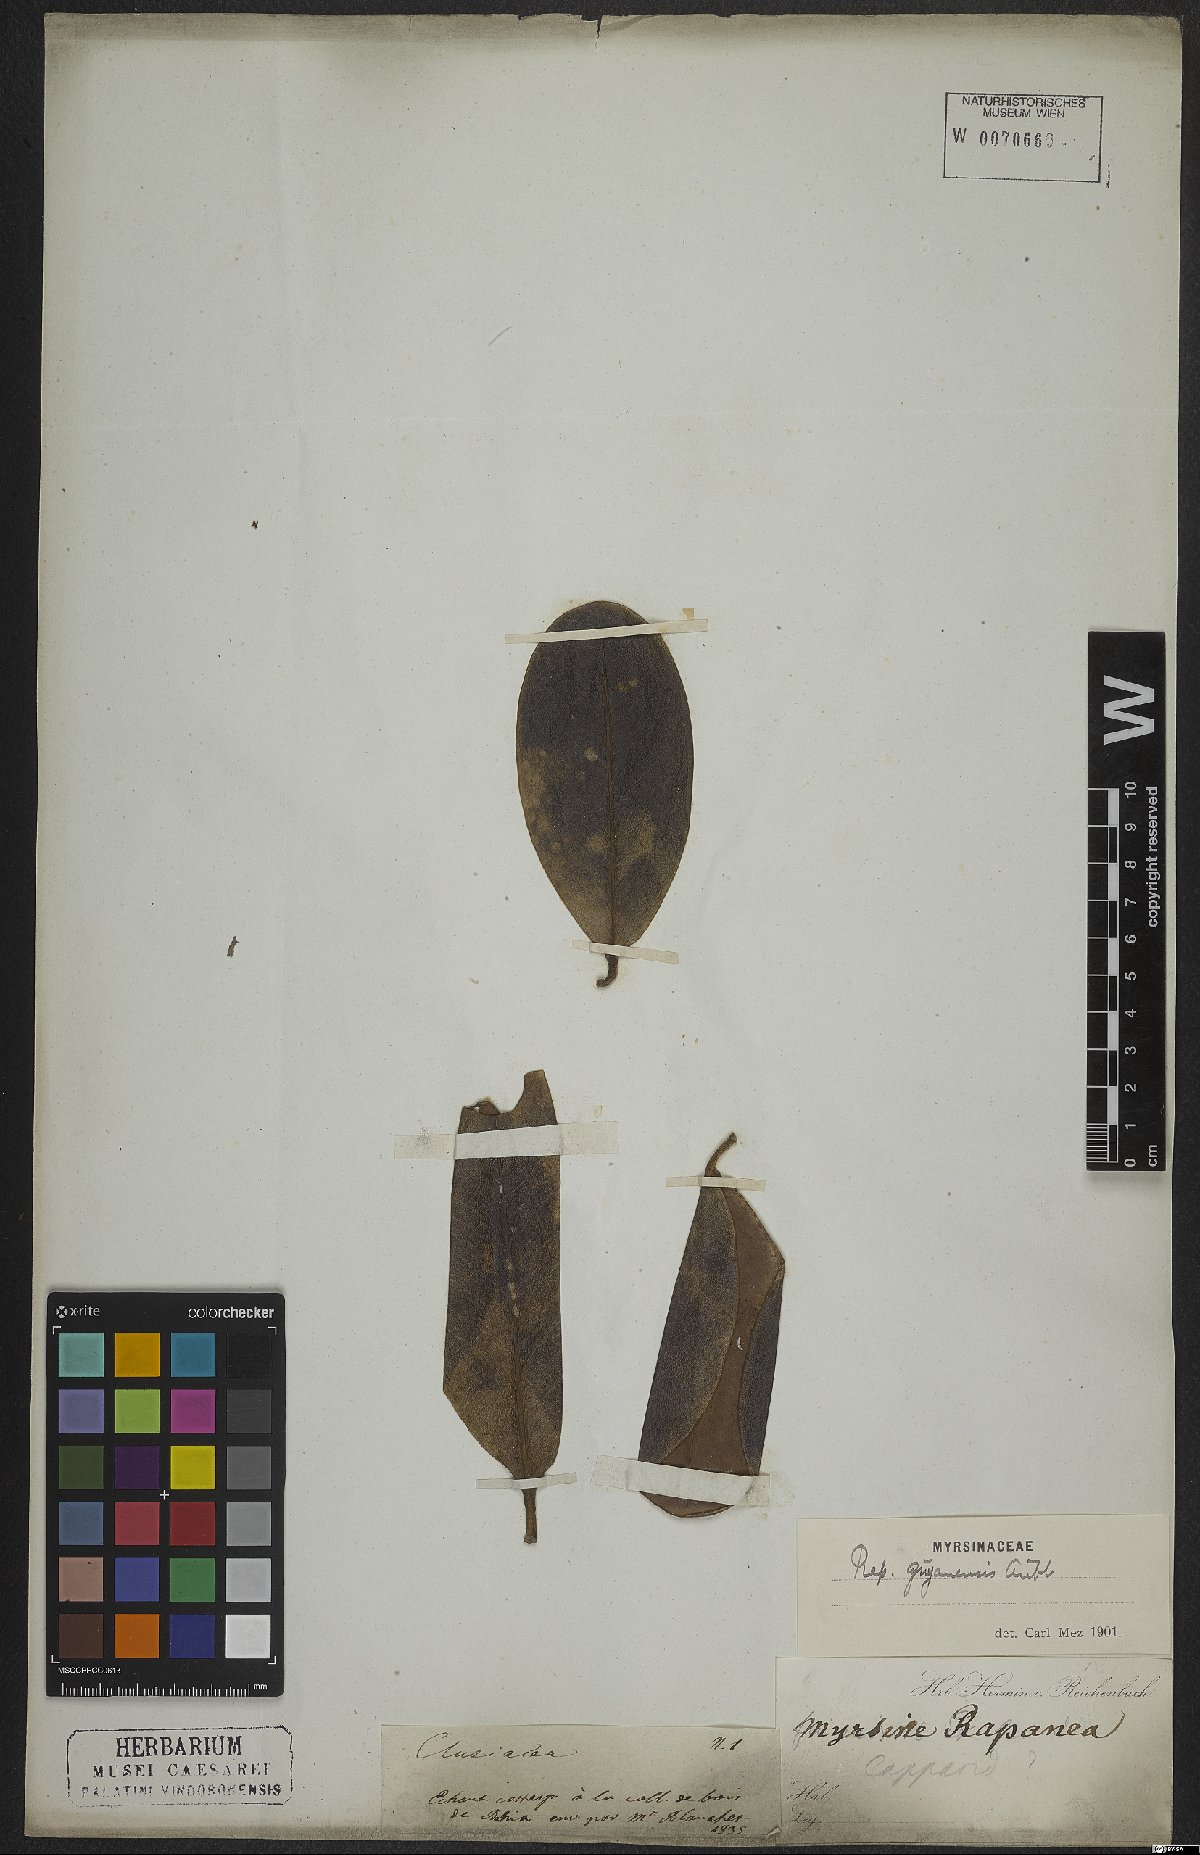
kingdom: Plantae
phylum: Tracheophyta
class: Magnoliopsida
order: Ericales
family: Primulaceae
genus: Myrsine
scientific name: Myrsine guianensis
